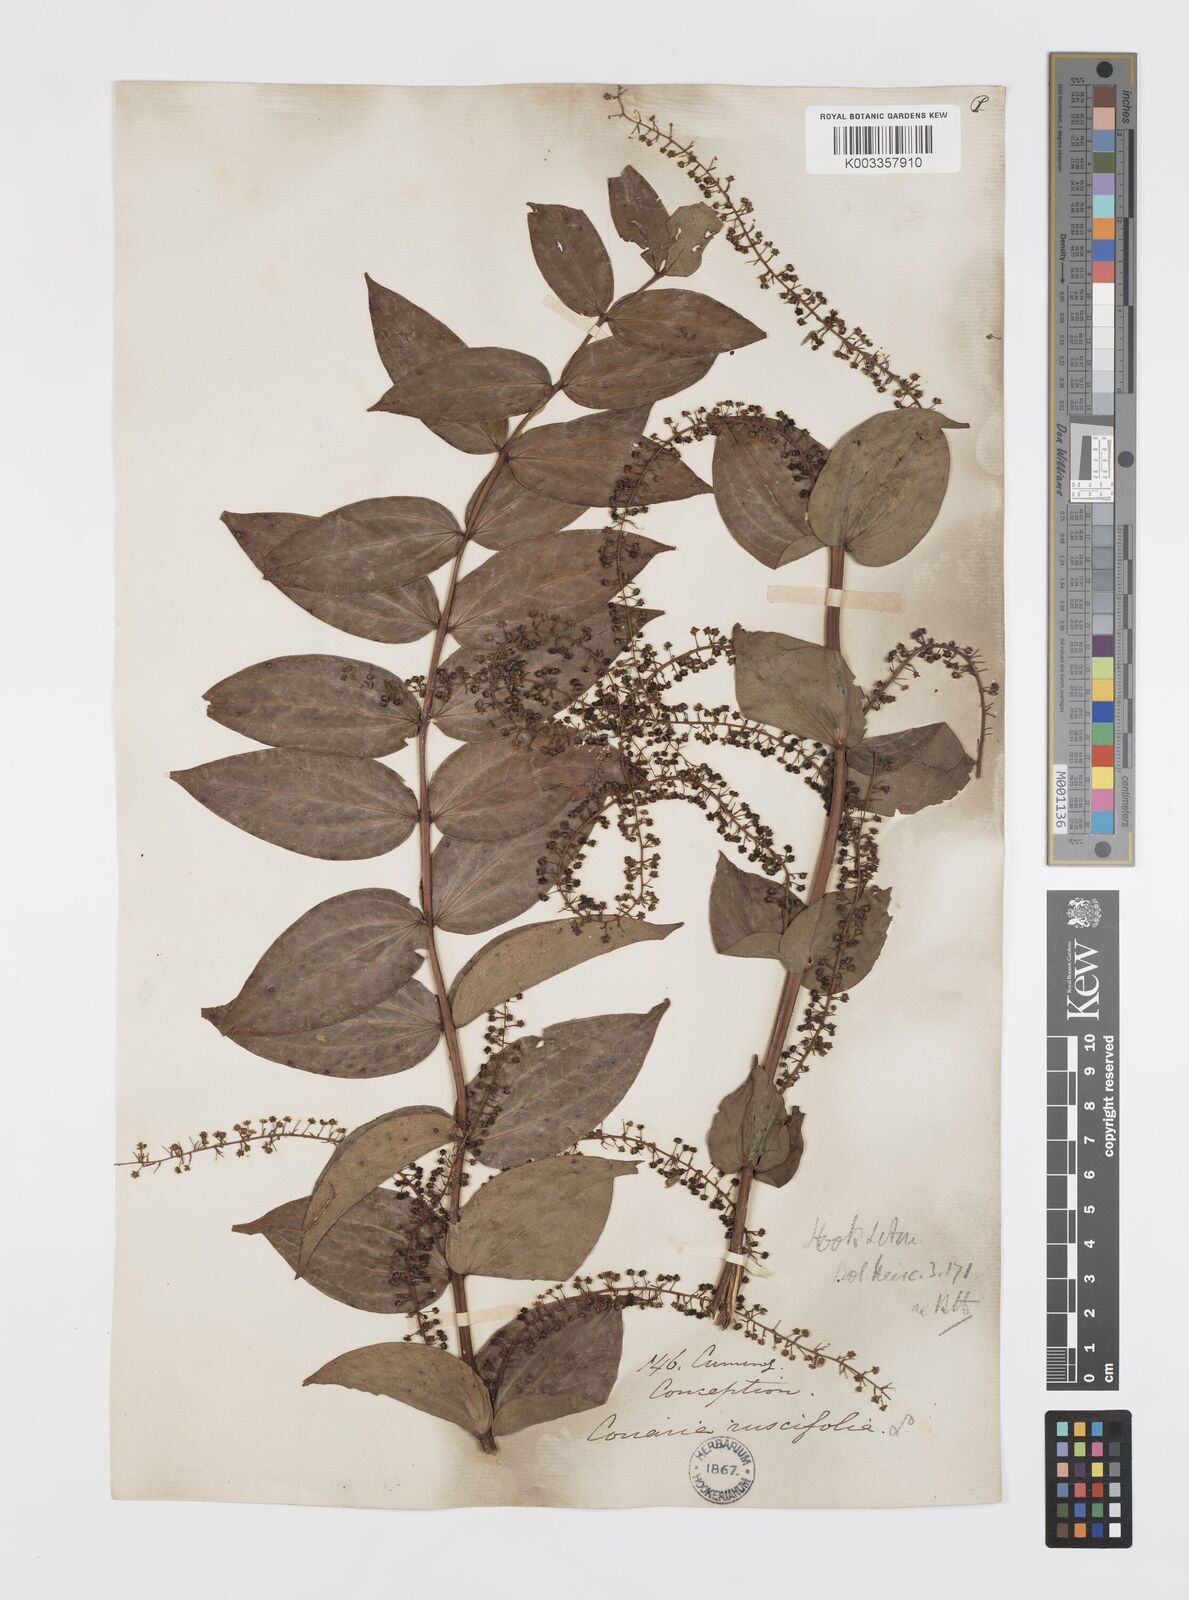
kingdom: Plantae
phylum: Tracheophyta
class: Magnoliopsida
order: Cucurbitales
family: Coriariaceae
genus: Coriaria
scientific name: Coriaria ruscifolia
